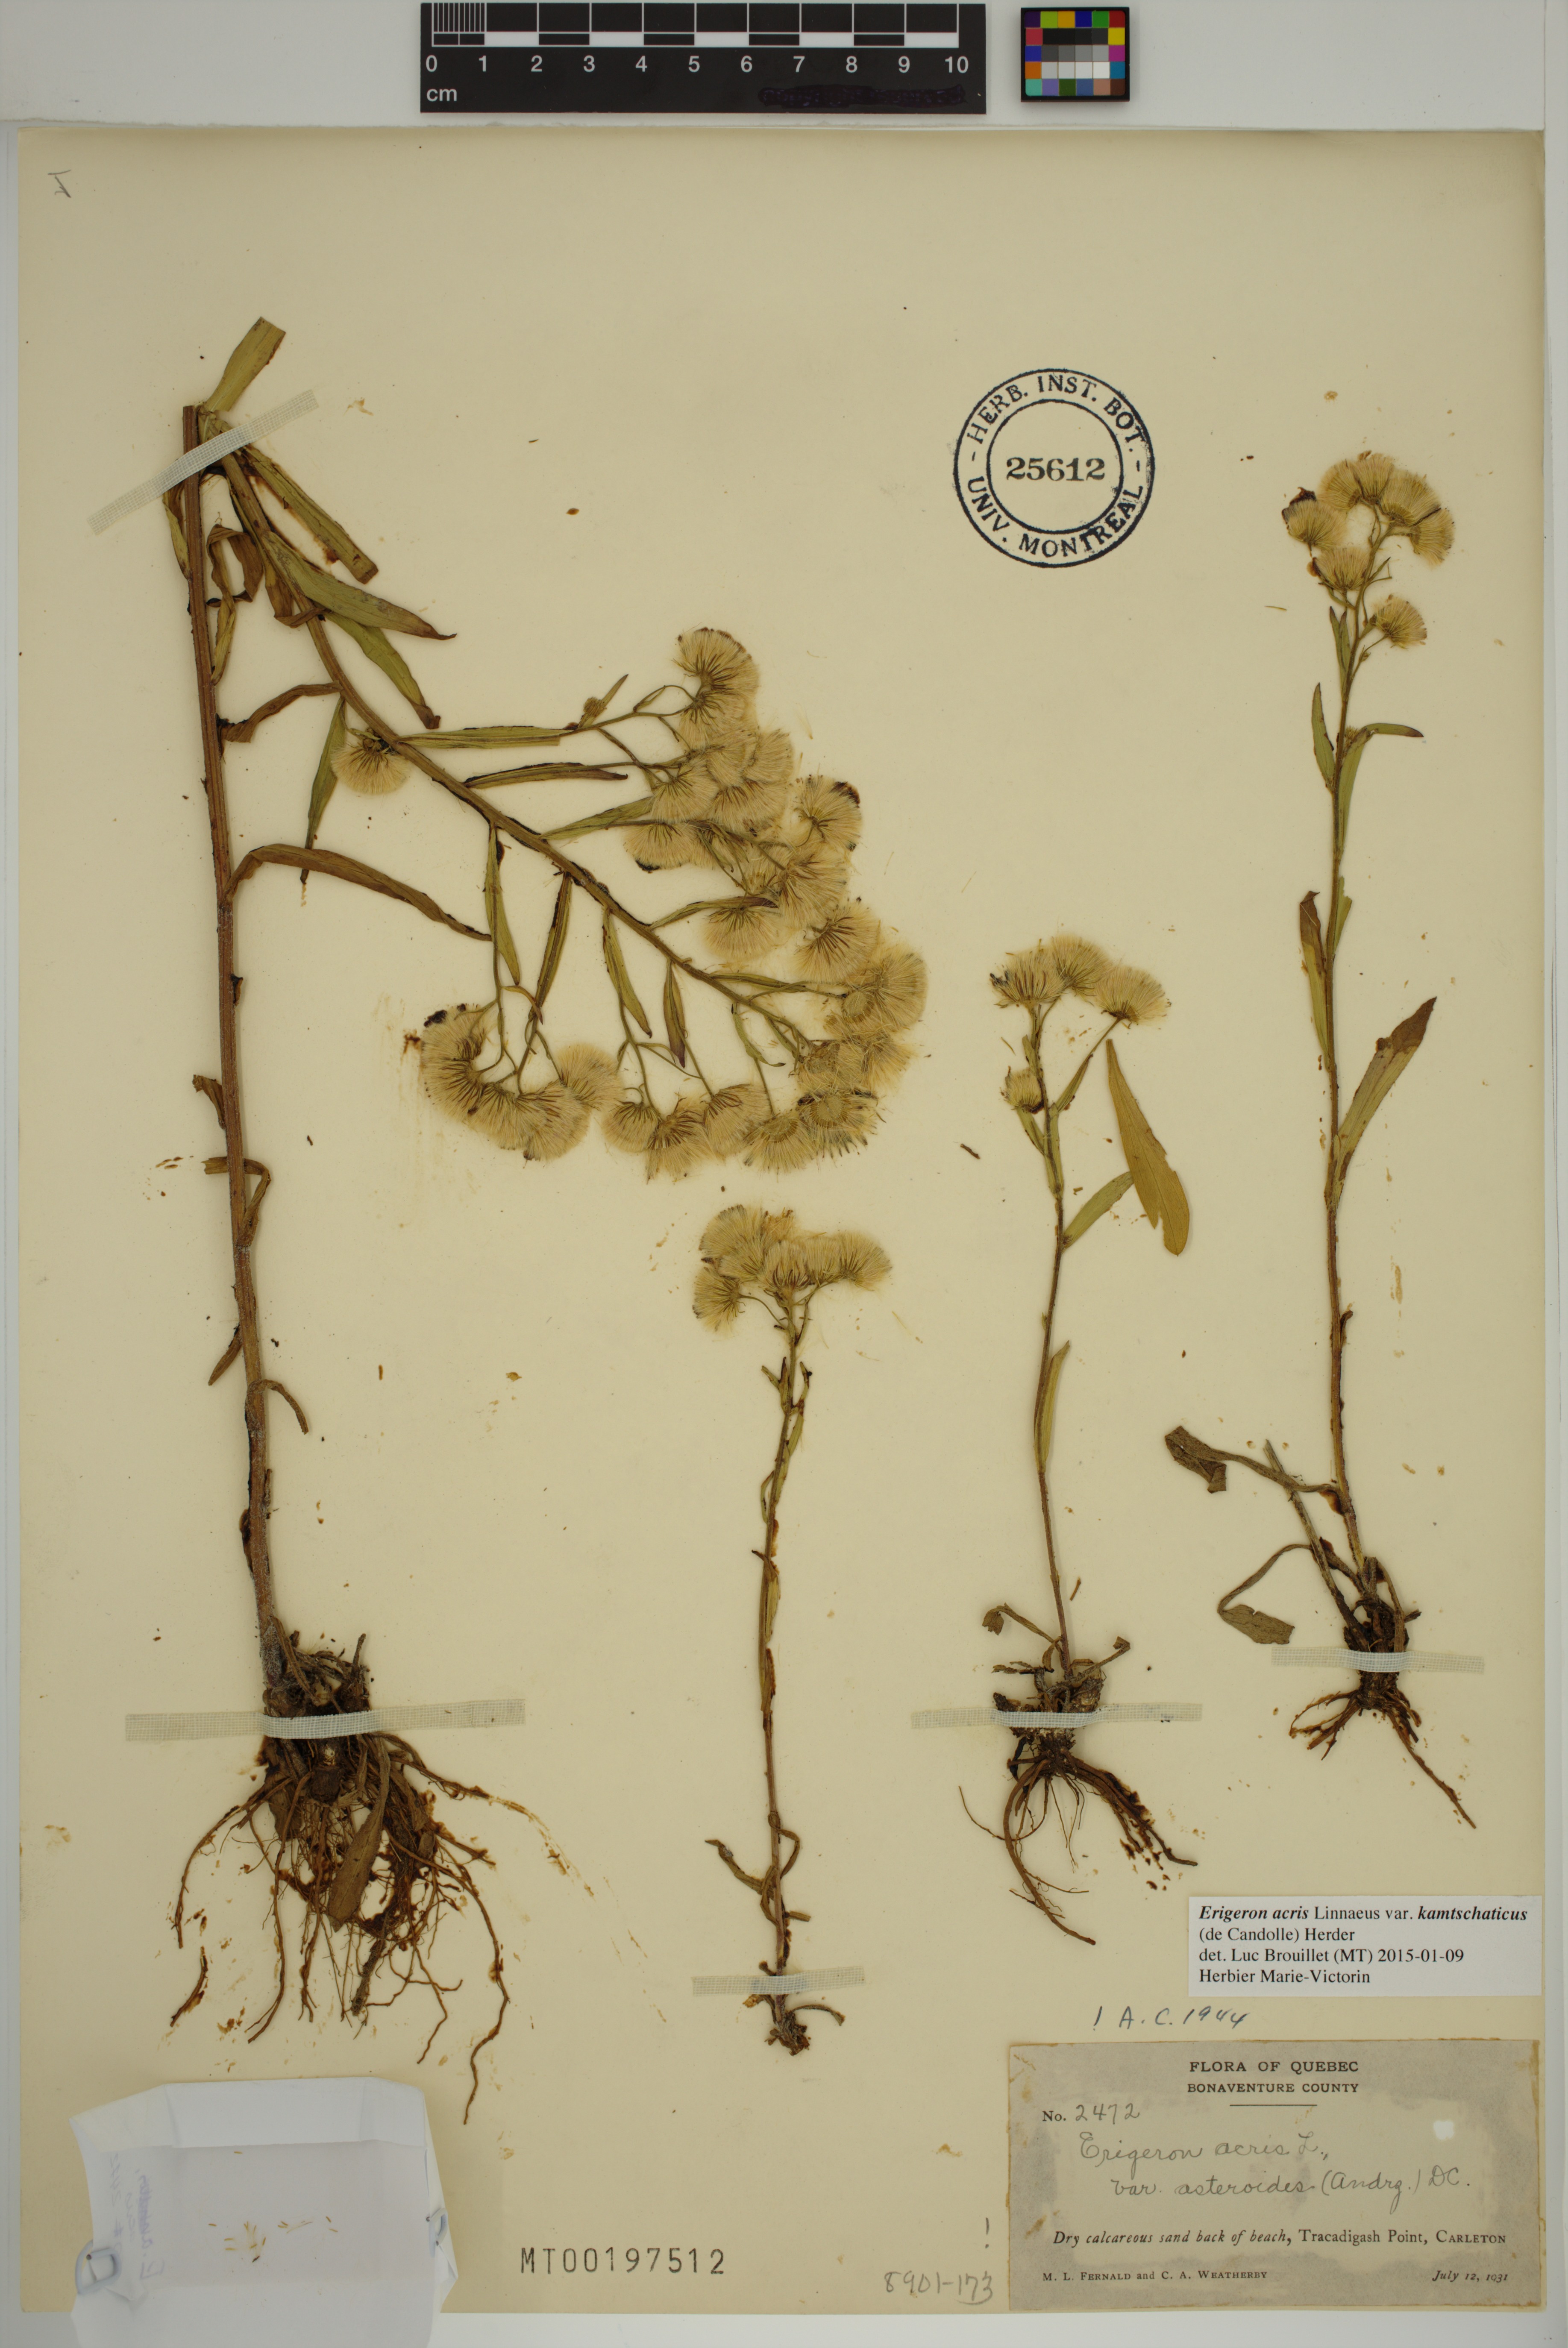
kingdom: Plantae
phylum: Tracheophyta
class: Magnoliopsida
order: Asterales
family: Asteraceae
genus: Erigeron
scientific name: Erigeron kamtschaticus
